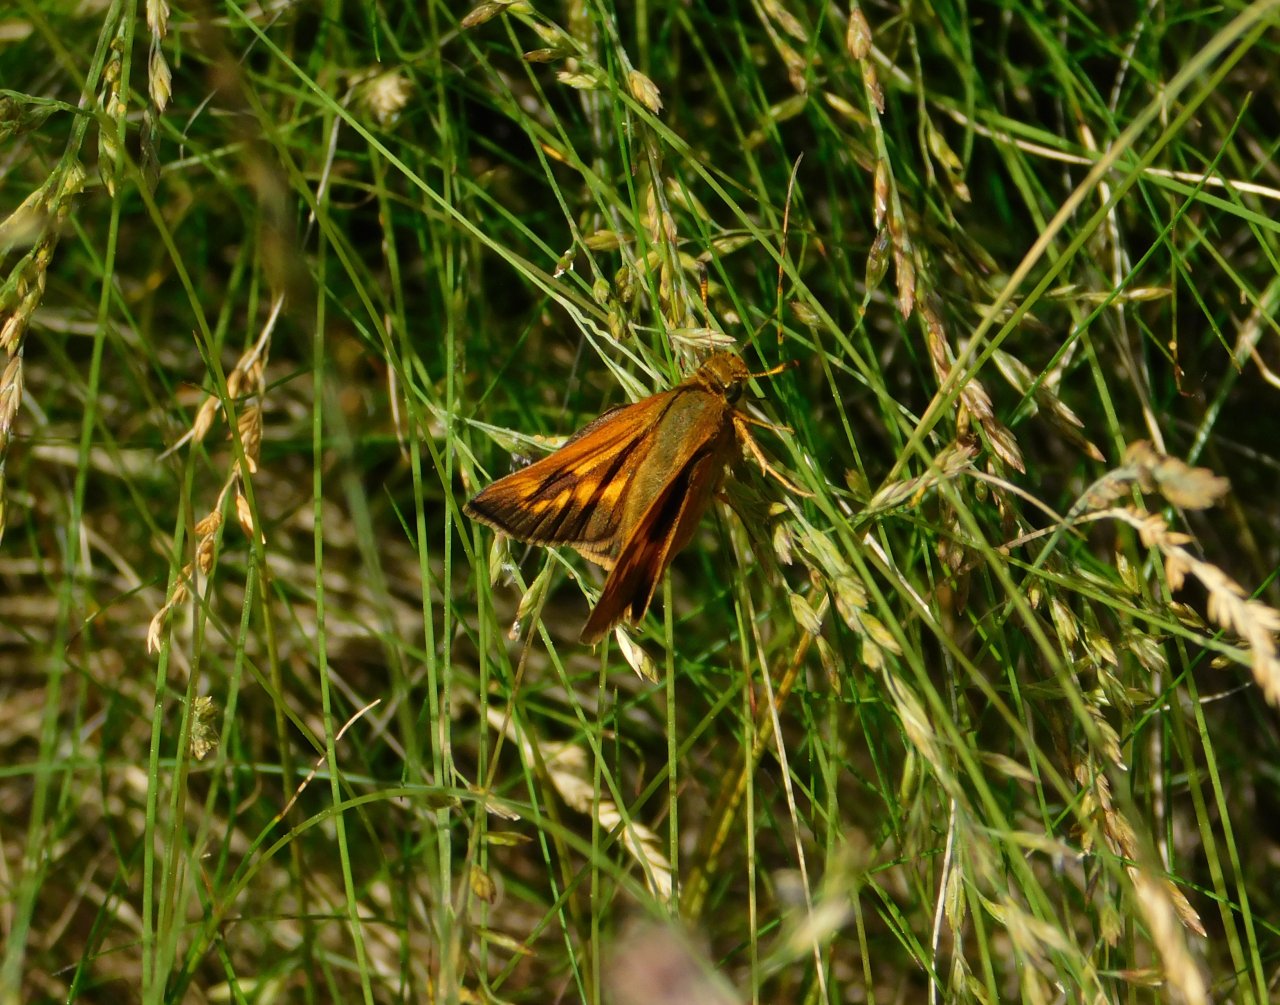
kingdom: Animalia
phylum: Arthropoda
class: Insecta
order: Lepidoptera
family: Hesperiidae
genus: Polites
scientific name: Polites
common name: Long Dash Skipper
